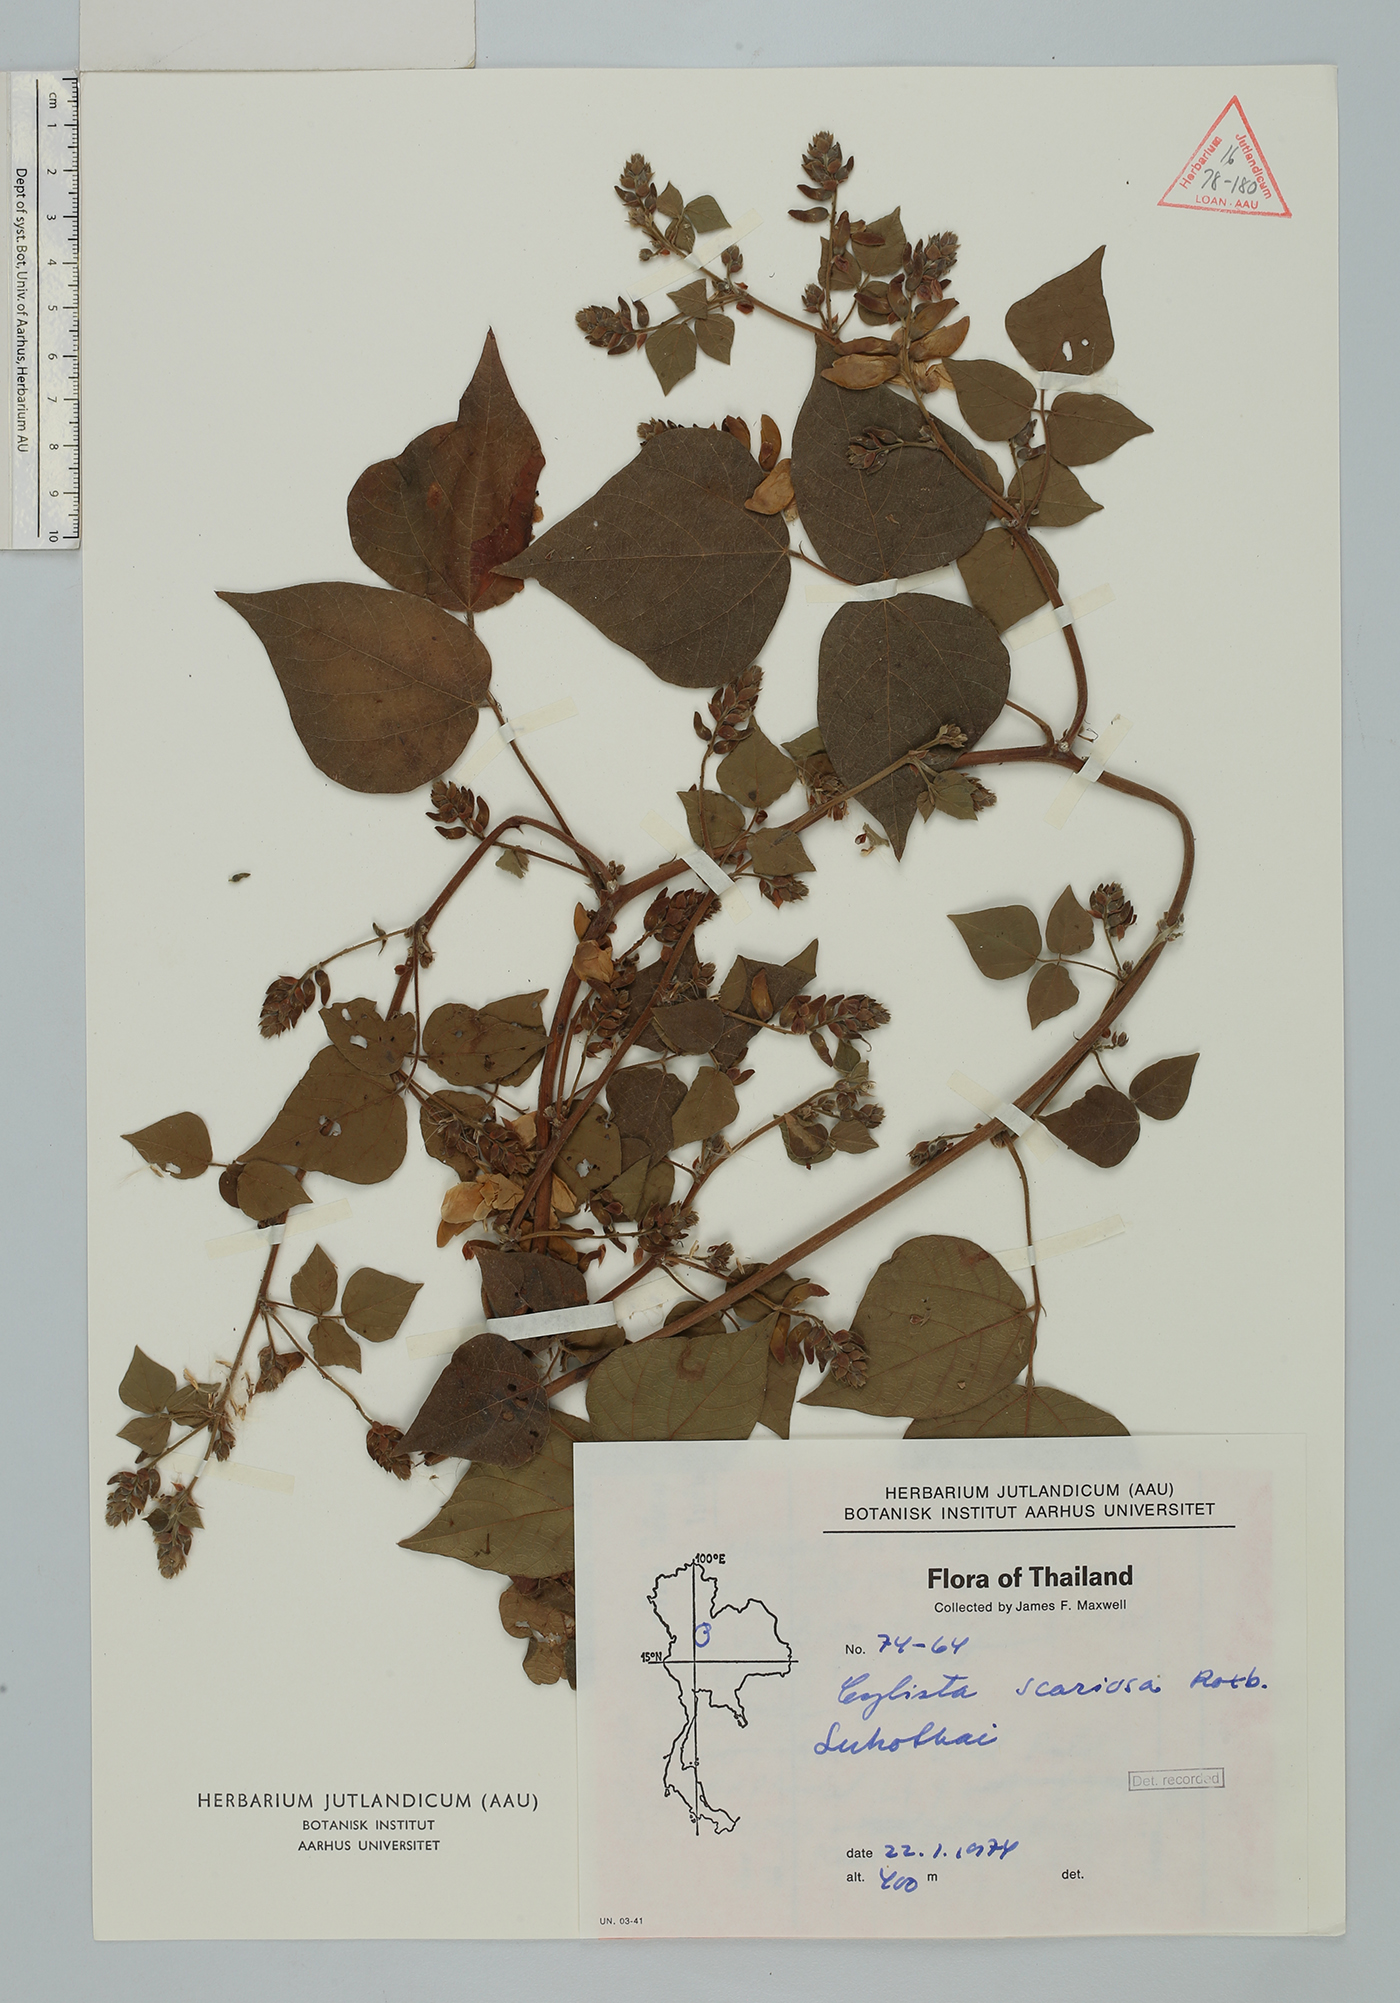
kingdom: Plantae
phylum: Tracheophyta
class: Magnoliopsida
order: Fabales
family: Fabaceae
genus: Paracalyx
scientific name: Paracalyx scariosus
